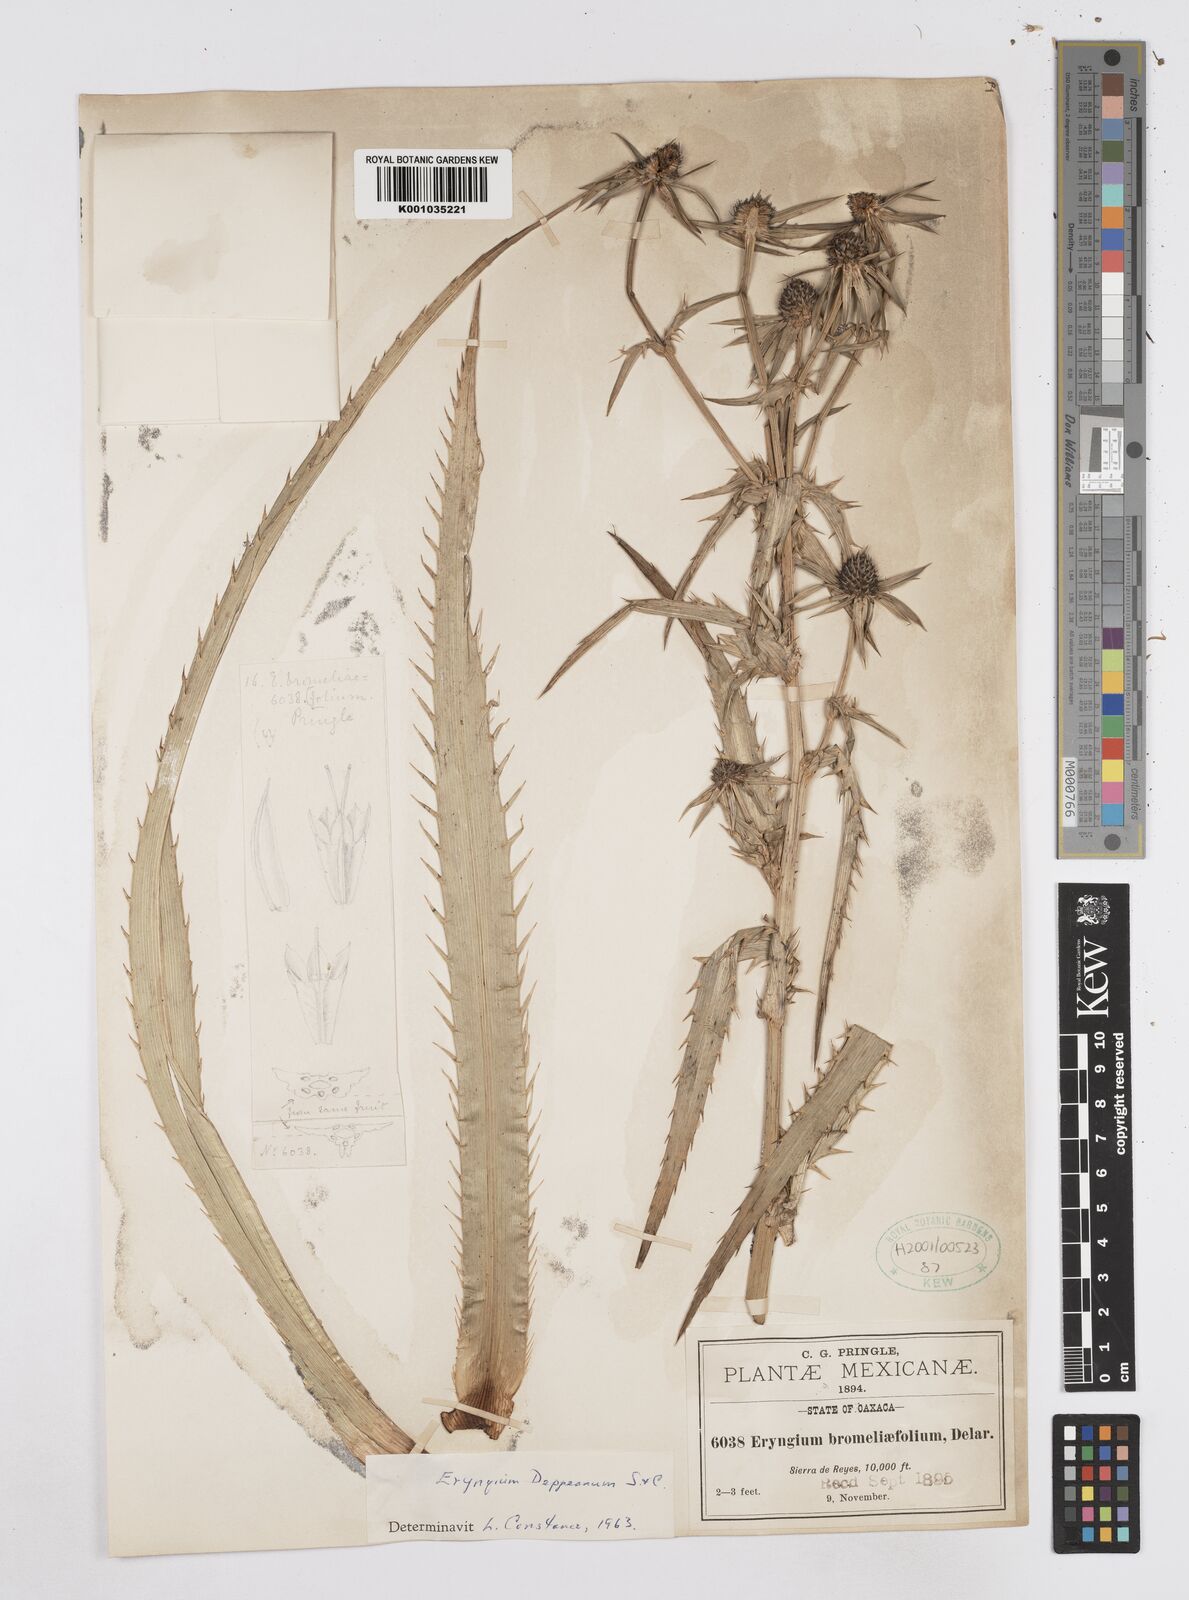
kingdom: Plantae
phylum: Tracheophyta
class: Magnoliopsida
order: Apiales
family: Apiaceae
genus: Eryngium
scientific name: Eryngium tzeltal
